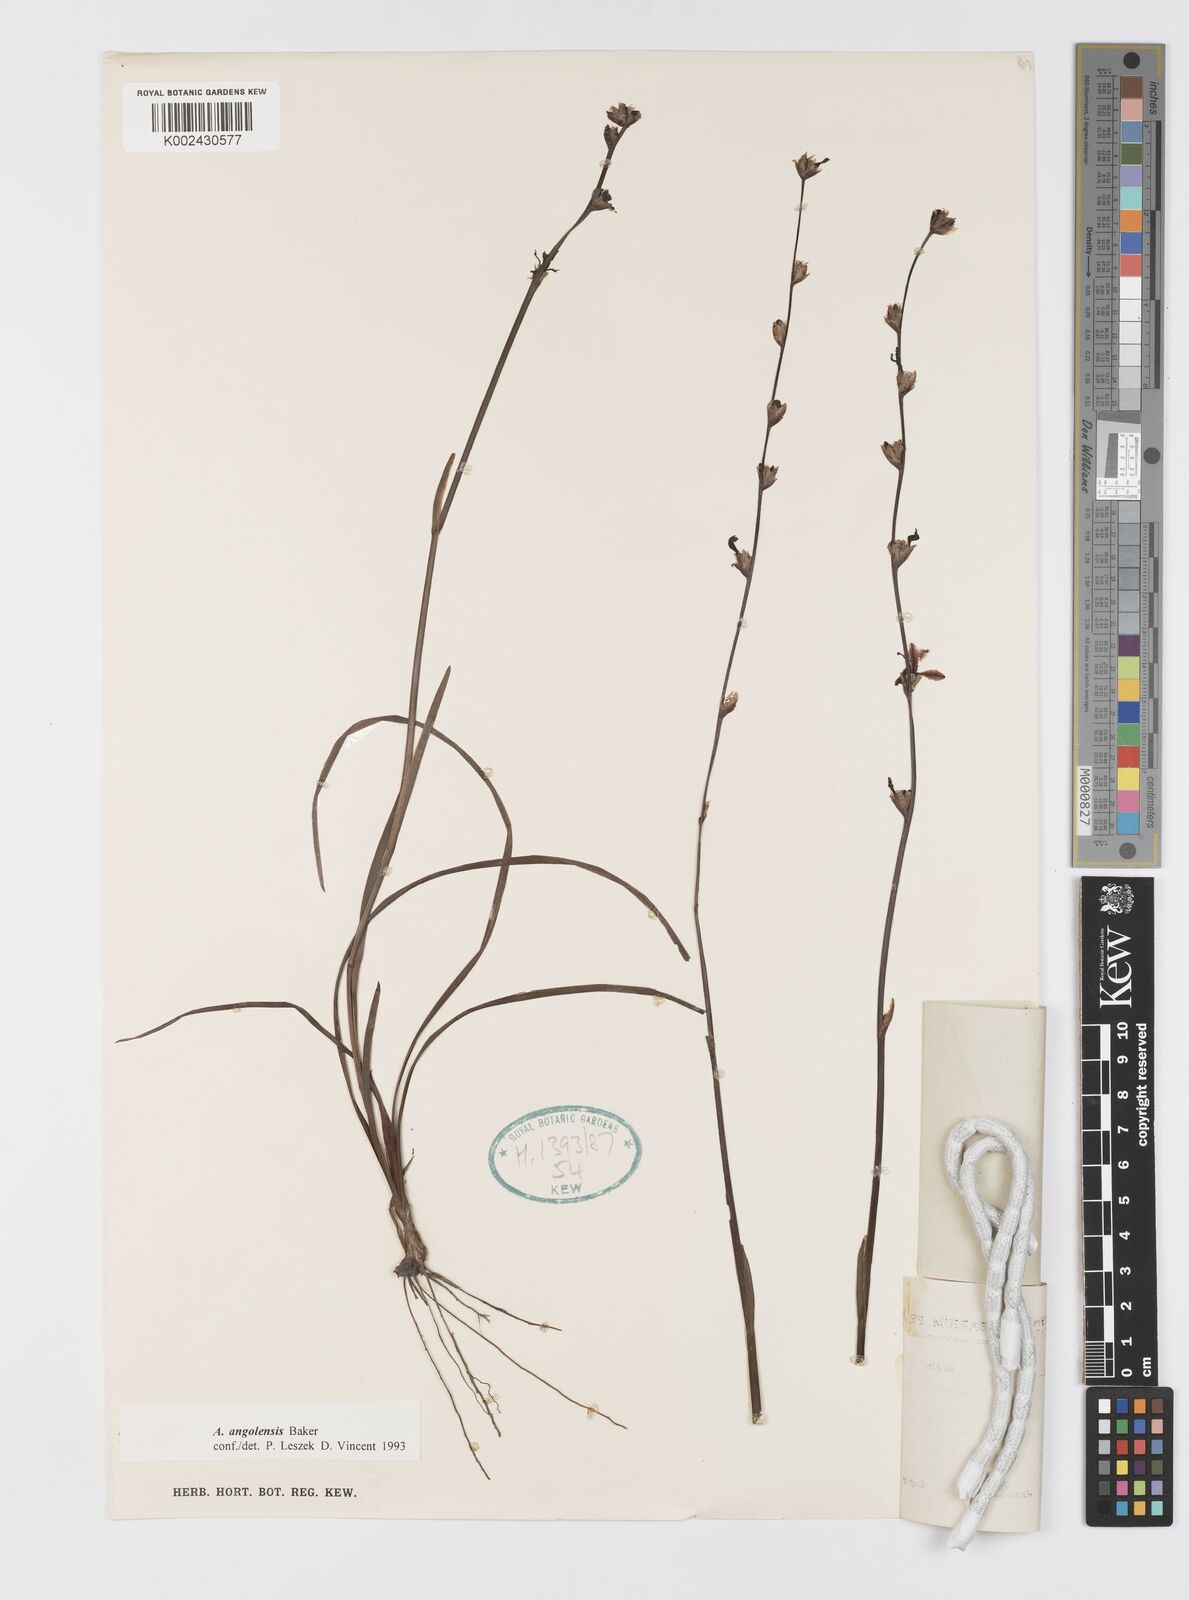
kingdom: Plantae
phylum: Tracheophyta
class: Liliopsida
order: Asparagales
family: Iridaceae
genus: Aristea
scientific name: Aristea angolensis
